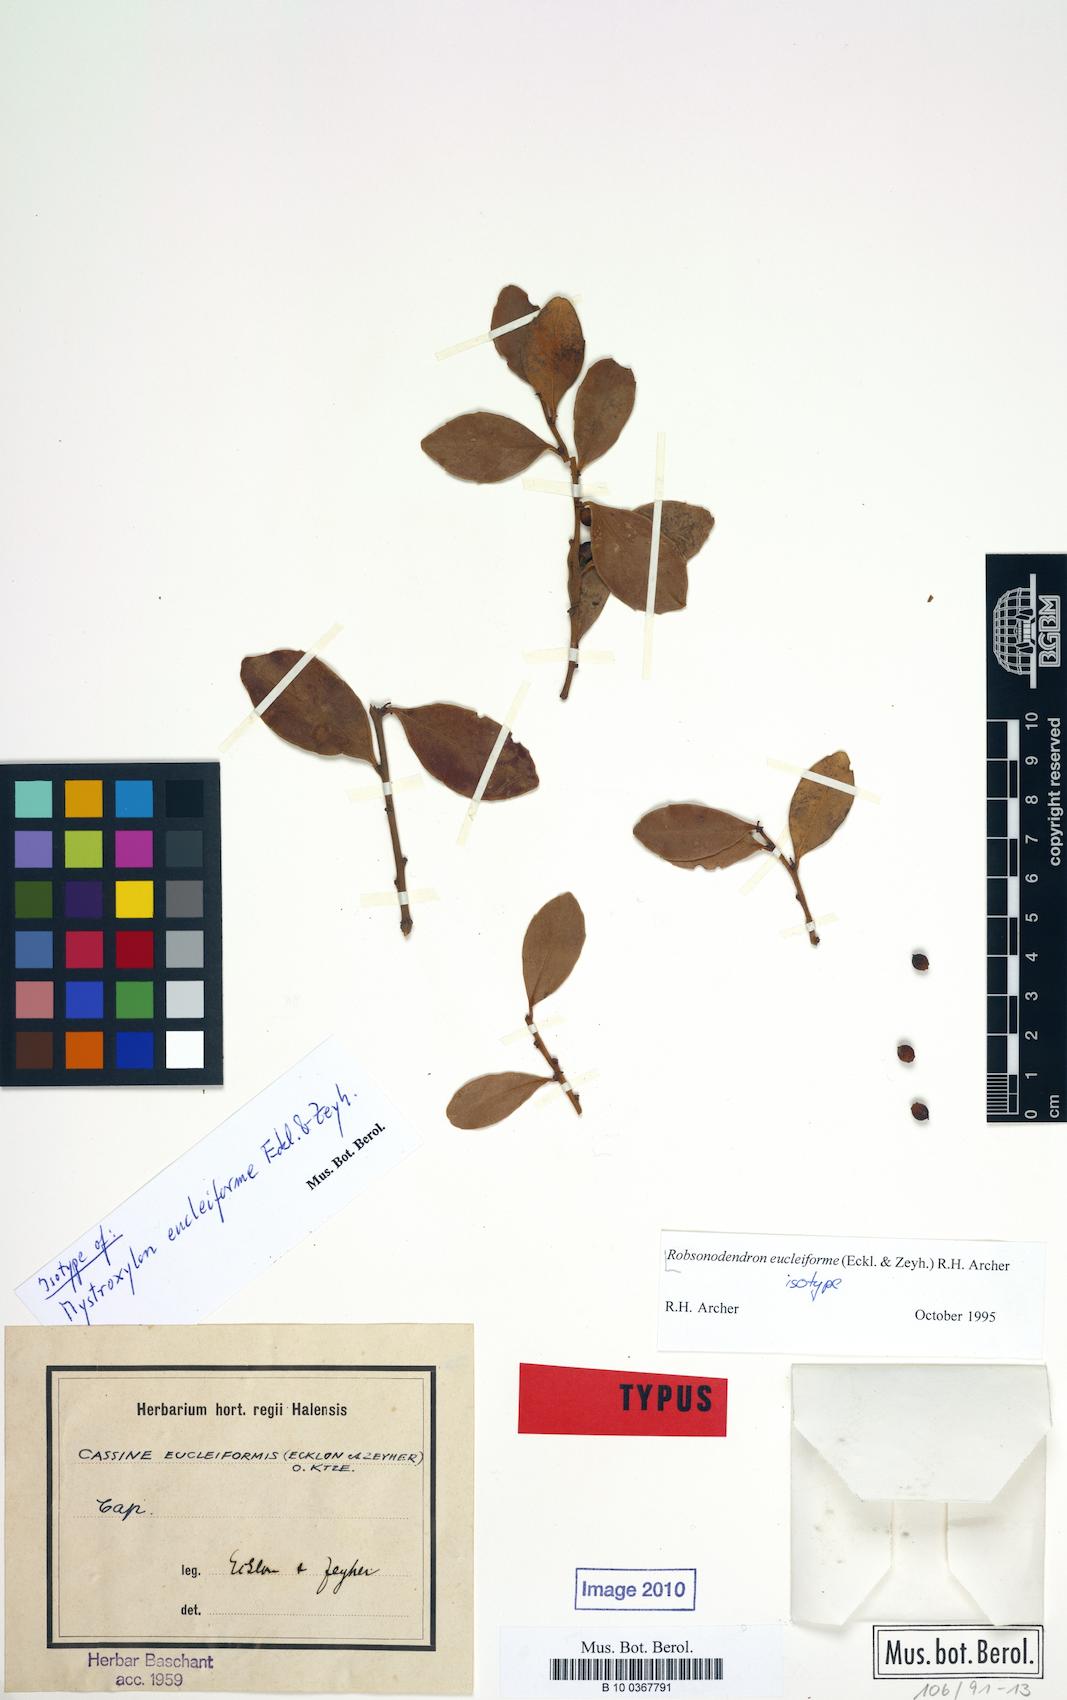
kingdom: Plantae
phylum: Tracheophyta
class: Magnoliopsida
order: Celastrales
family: Celastraceae
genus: Robsonodendron
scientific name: Robsonodendron eucleiforme
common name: Mock silky-bark
